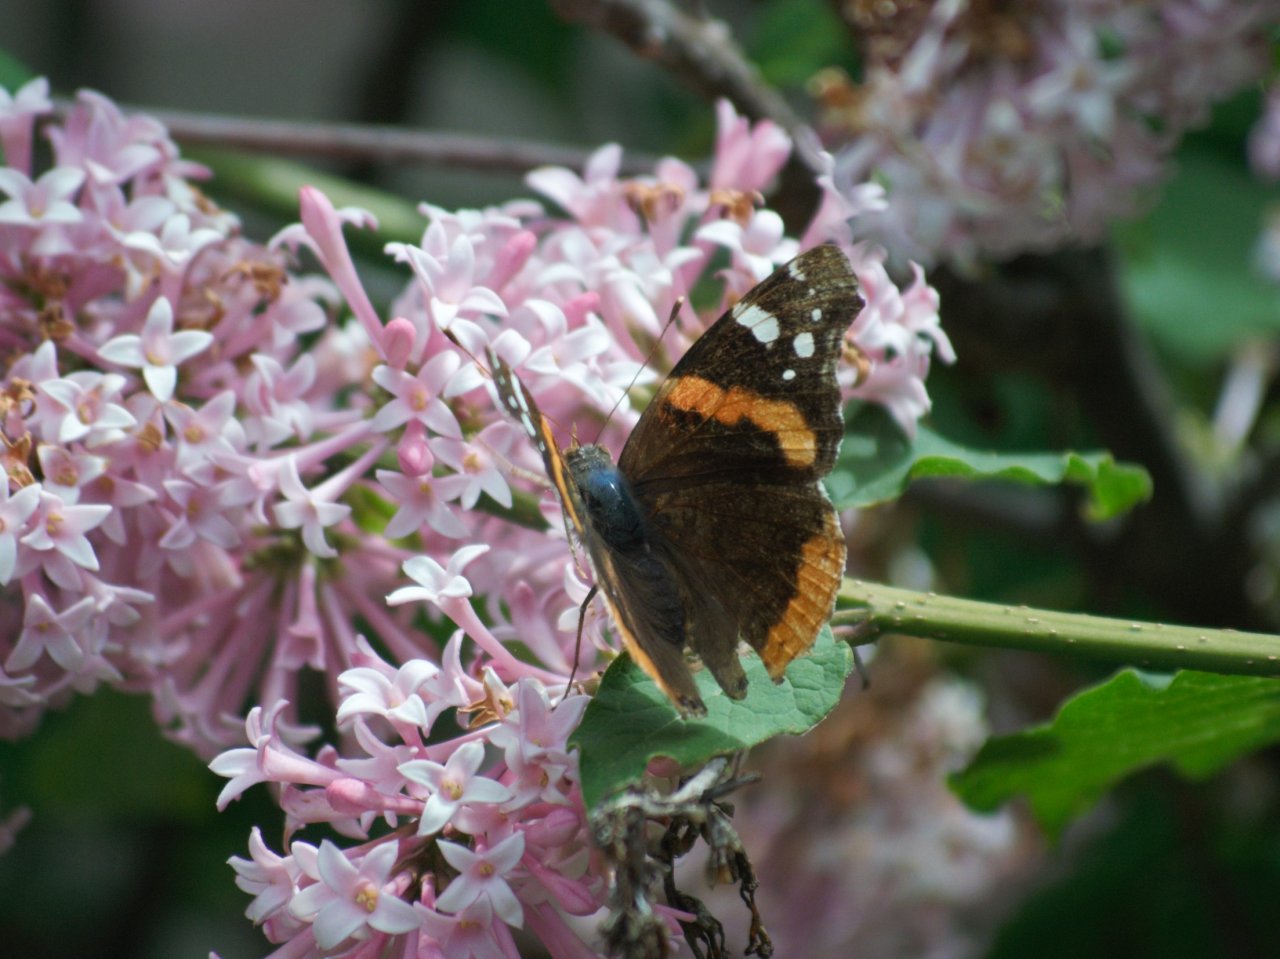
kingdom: Animalia
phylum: Arthropoda
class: Insecta
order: Lepidoptera
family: Nymphalidae
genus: Vanessa
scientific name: Vanessa atalanta
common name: Red Admiral
